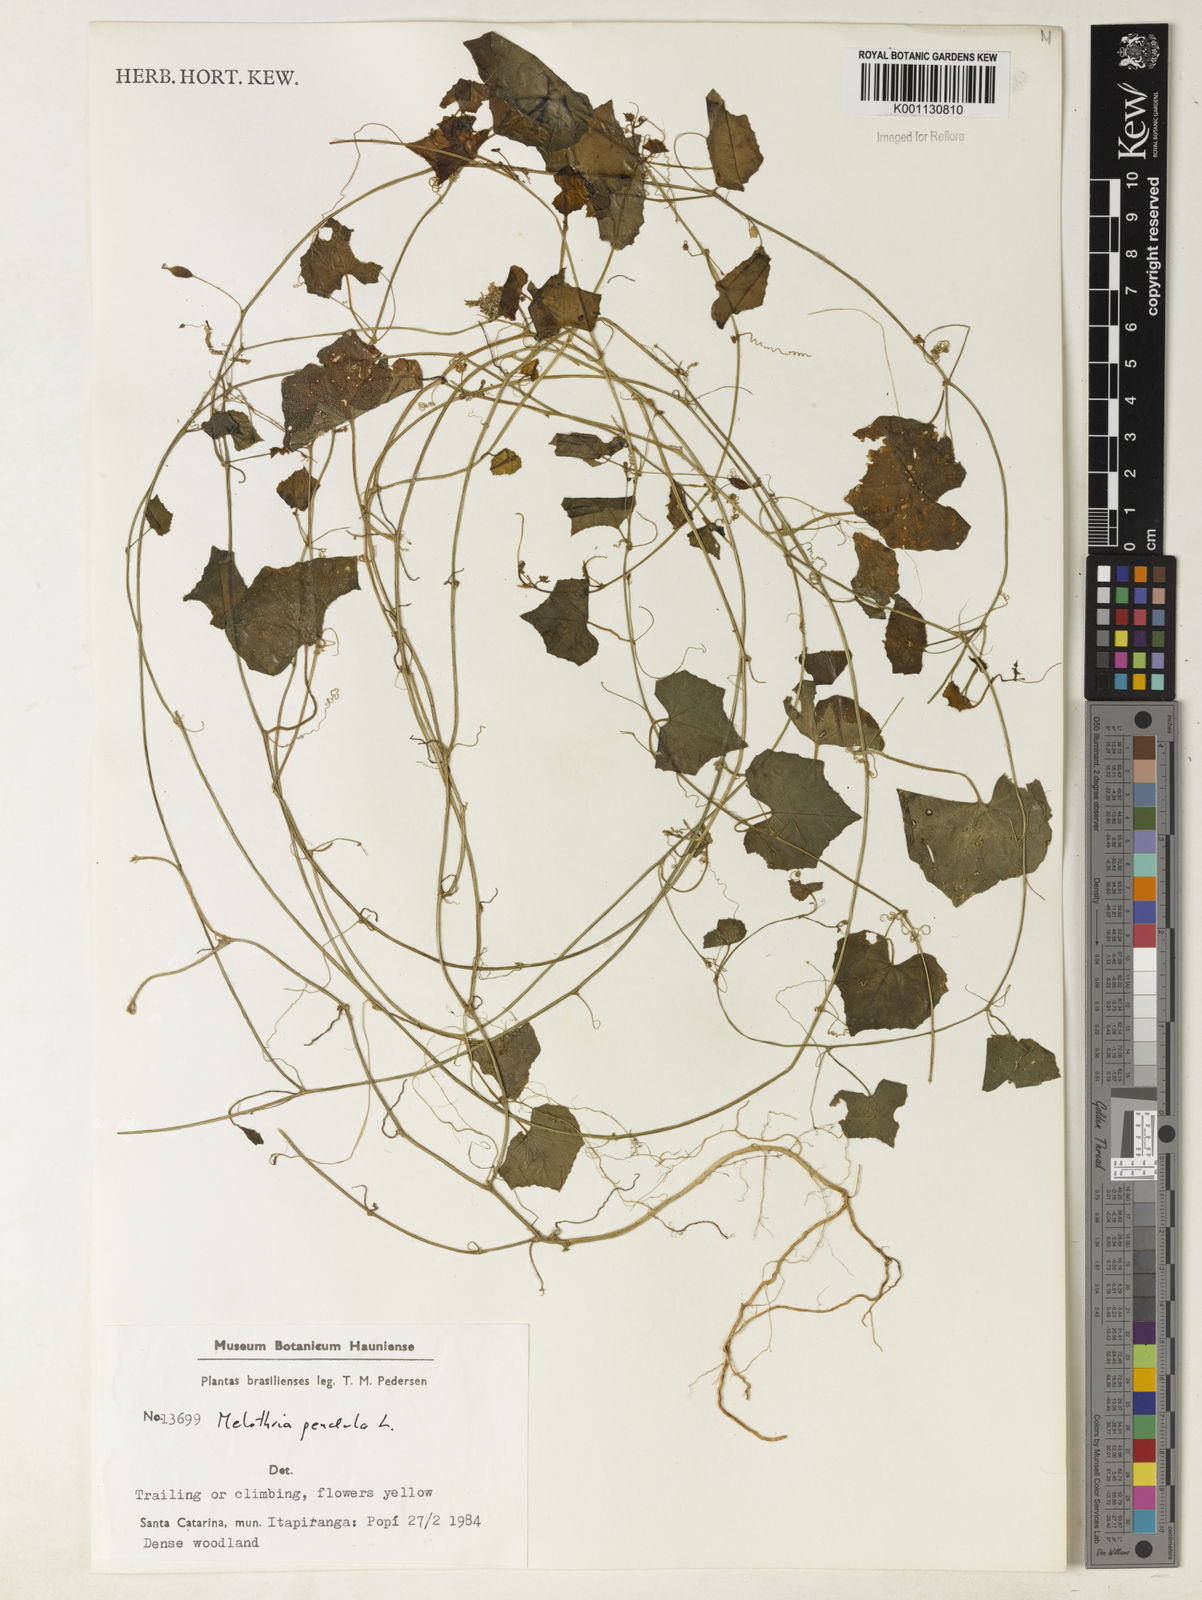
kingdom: Plantae
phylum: Tracheophyta
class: Magnoliopsida
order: Cucurbitales
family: Cucurbitaceae
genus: Melothria
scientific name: Melothria pendula
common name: Creeping-cucumber
